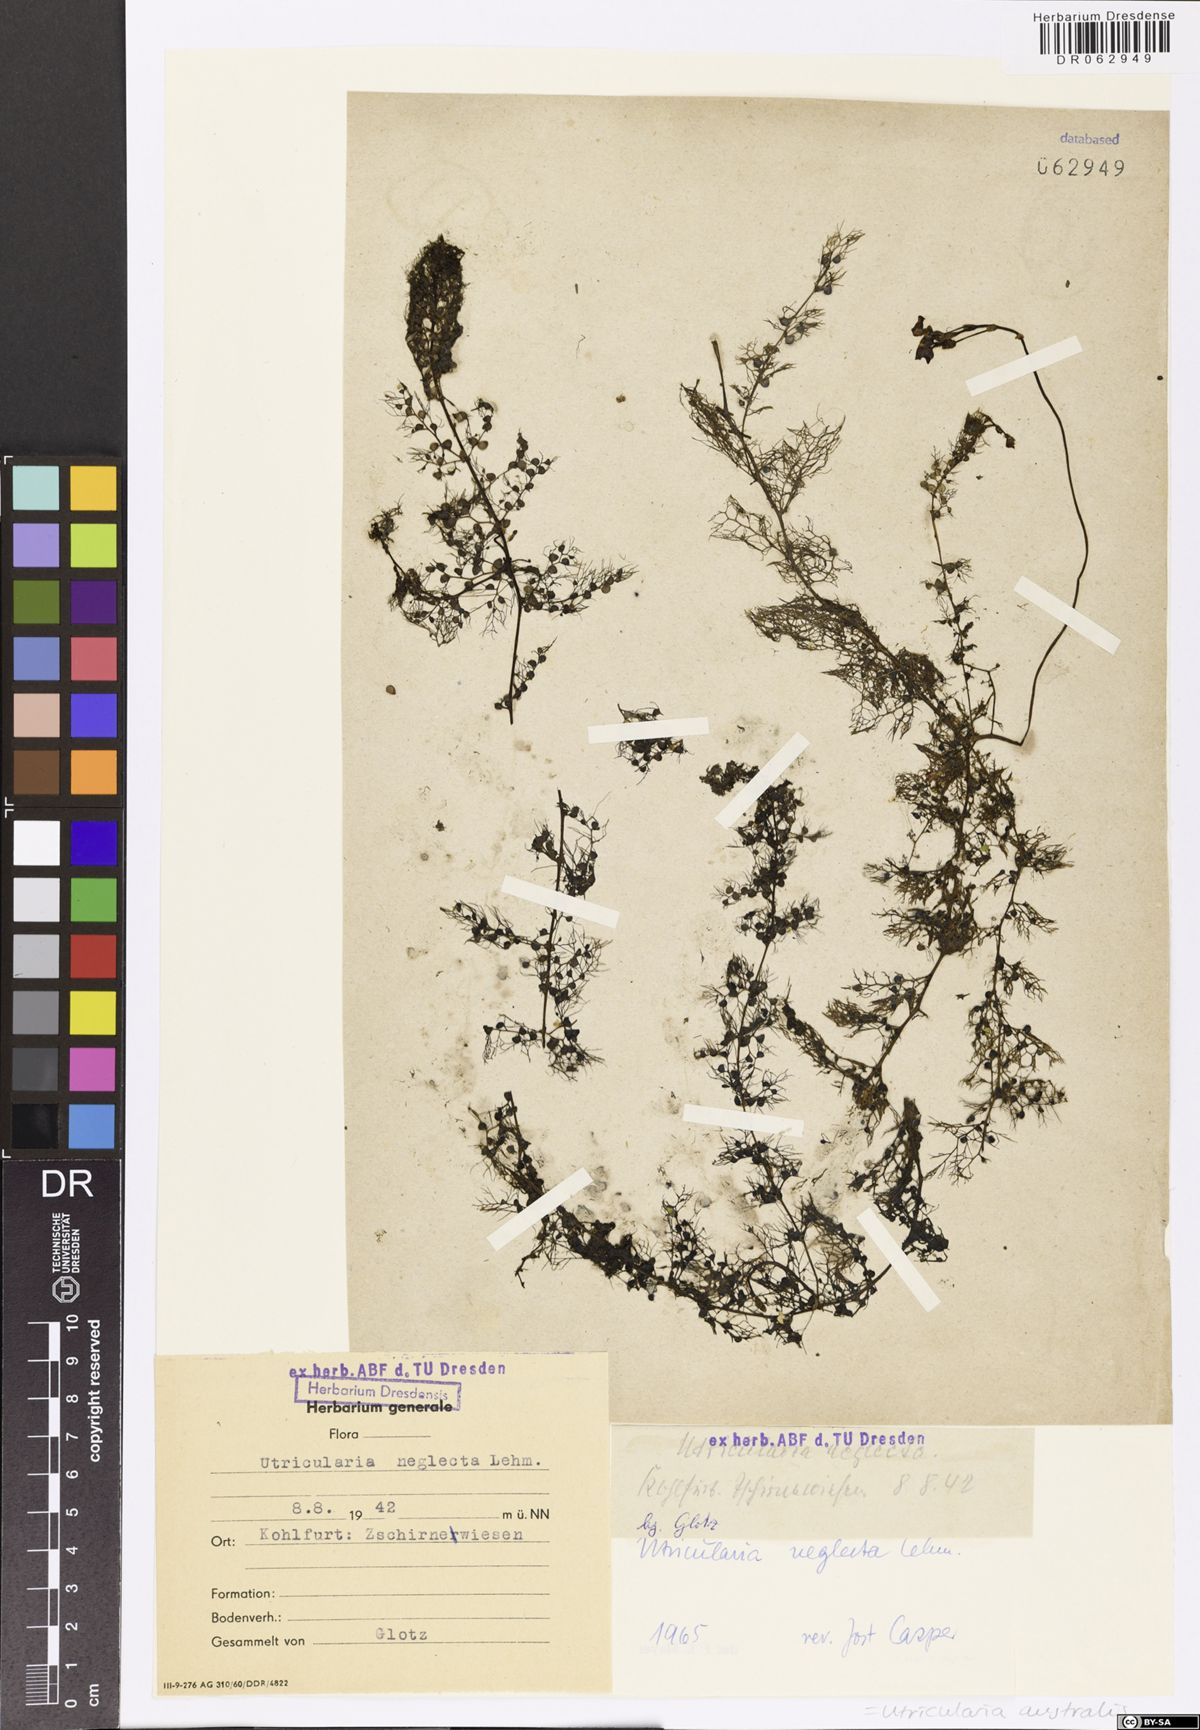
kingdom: Plantae
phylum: Tracheophyta
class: Magnoliopsida
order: Lamiales
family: Lentibulariaceae
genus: Utricularia
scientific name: Utricularia australis
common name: Bladderwort
